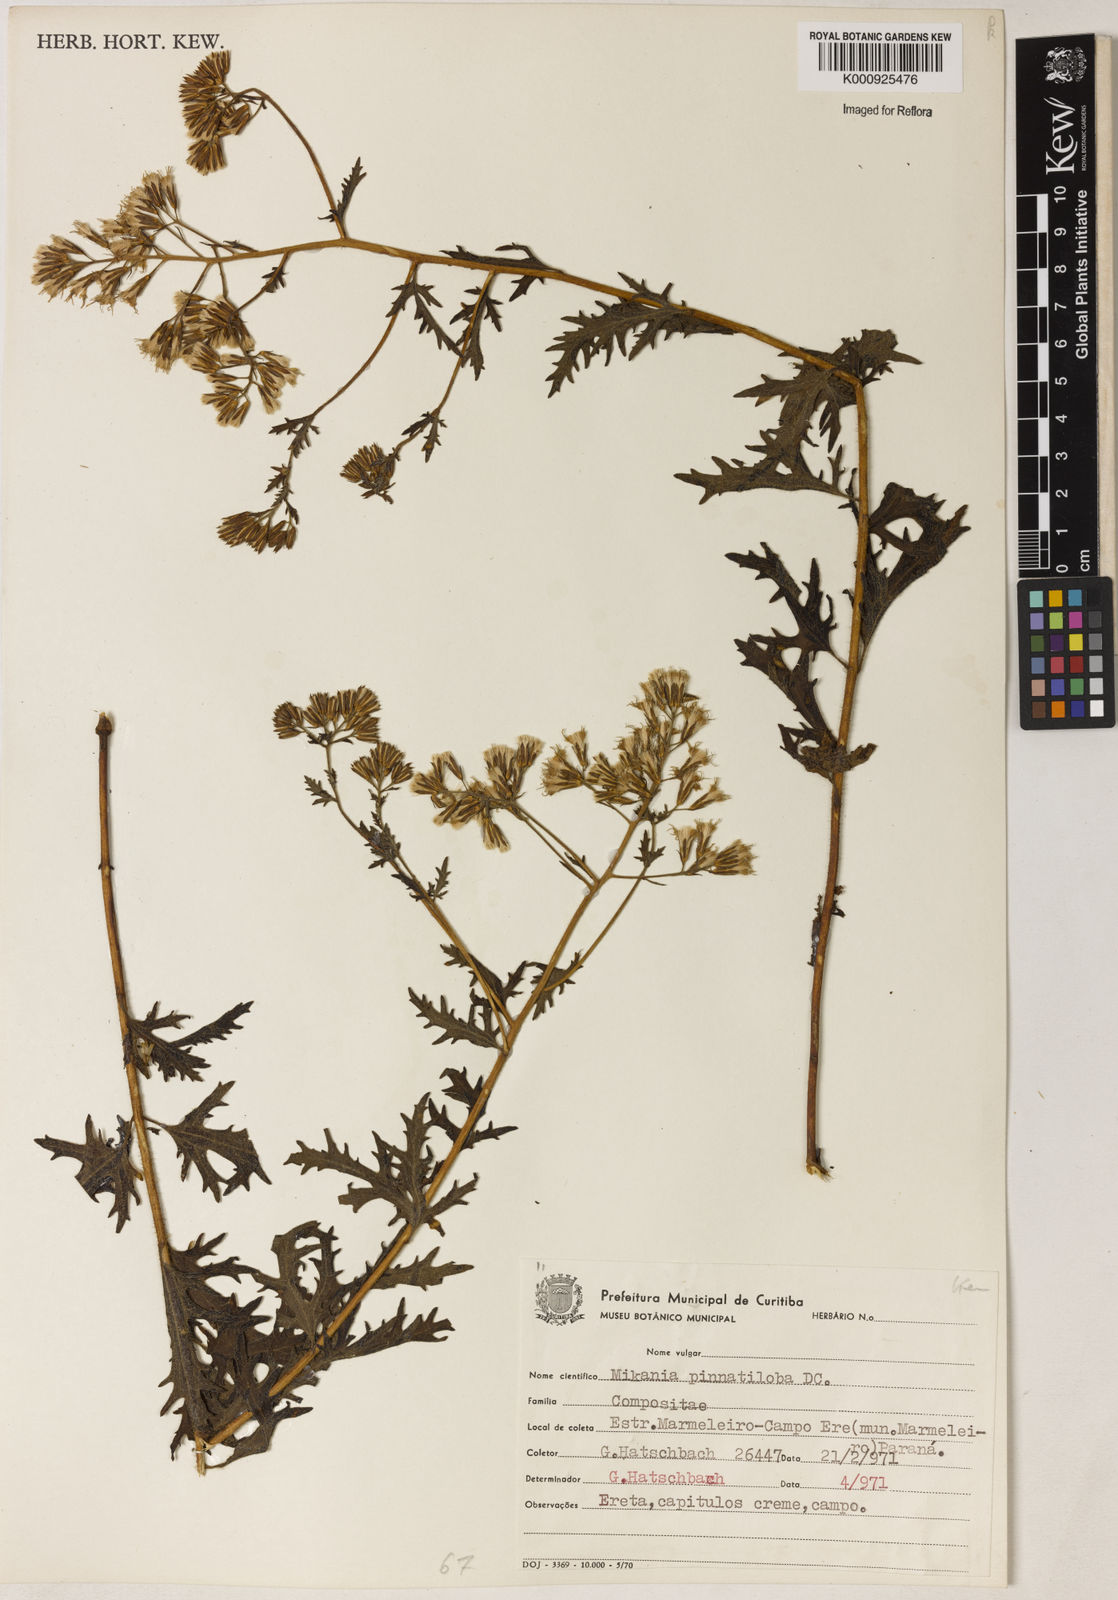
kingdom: Plantae
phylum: Tracheophyta
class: Magnoliopsida
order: Asterales
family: Asteraceae
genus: Mikania
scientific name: Mikania pinnatiloba
